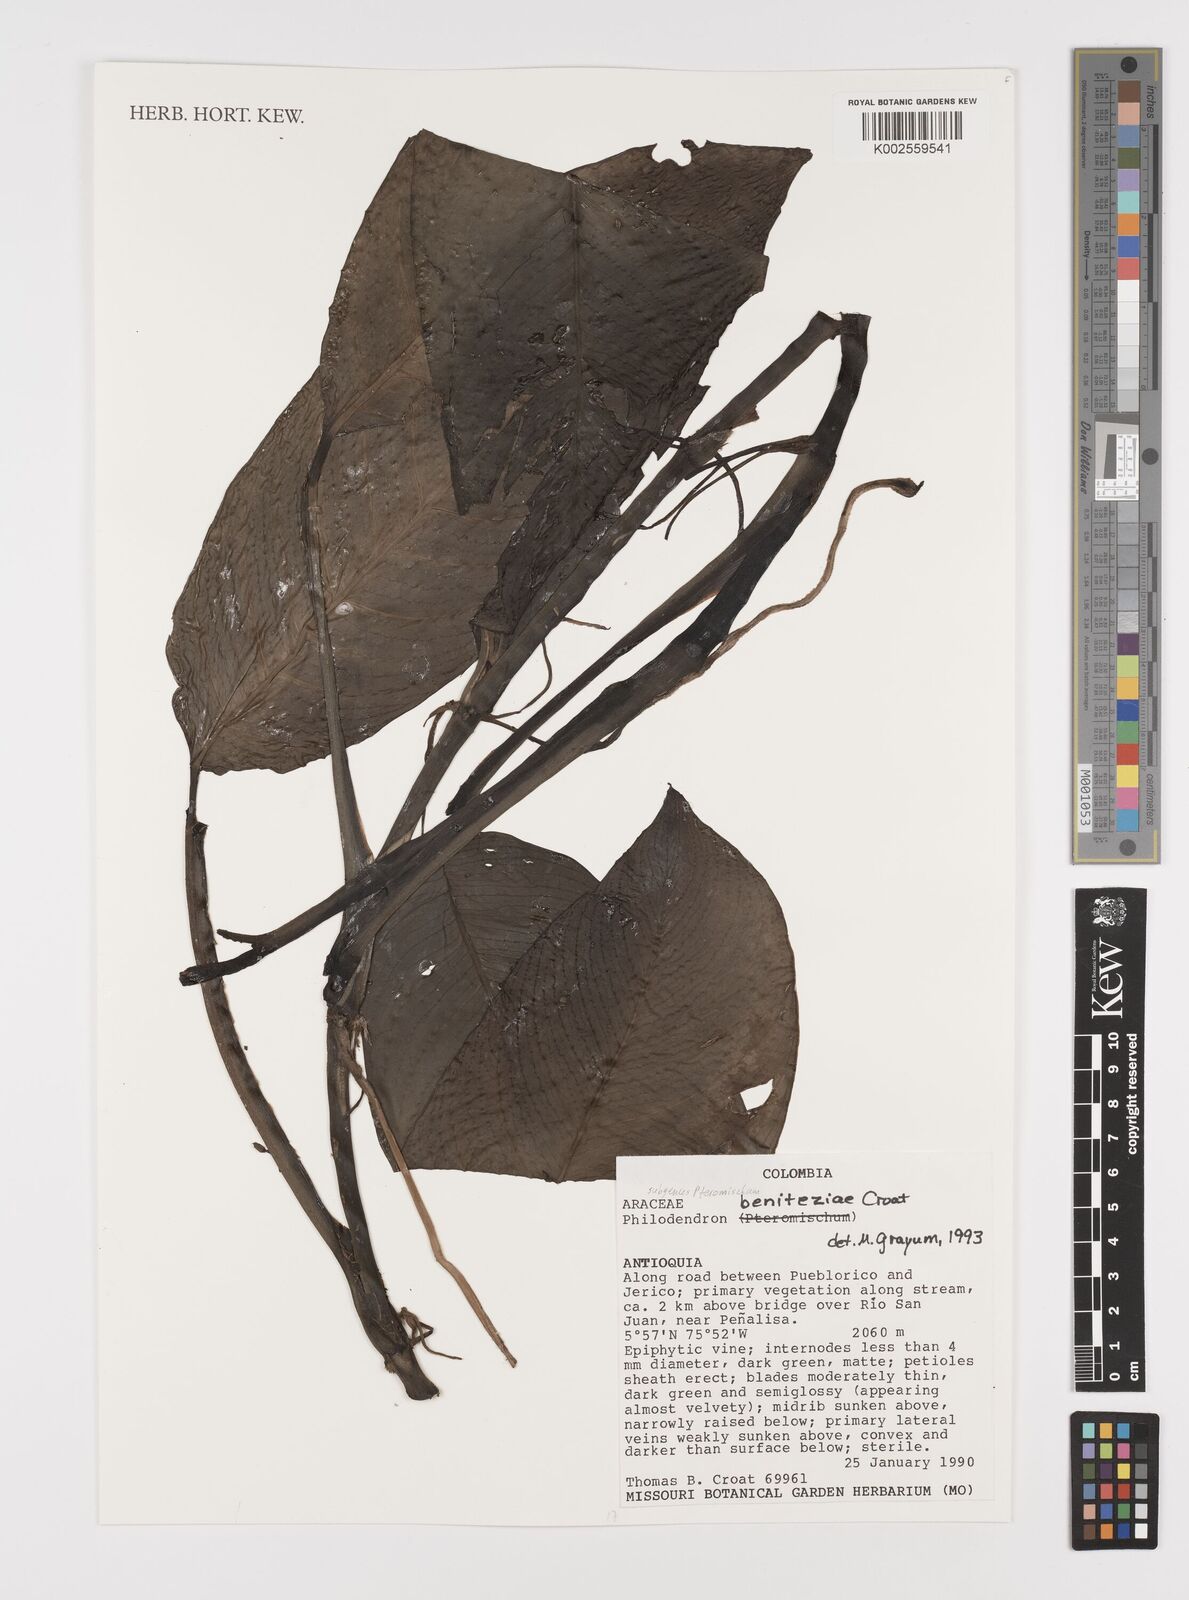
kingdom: Plantae
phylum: Tracheophyta
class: Liliopsida
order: Alismatales
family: Araceae
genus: Philodendron
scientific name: Philodendron beniteziae
